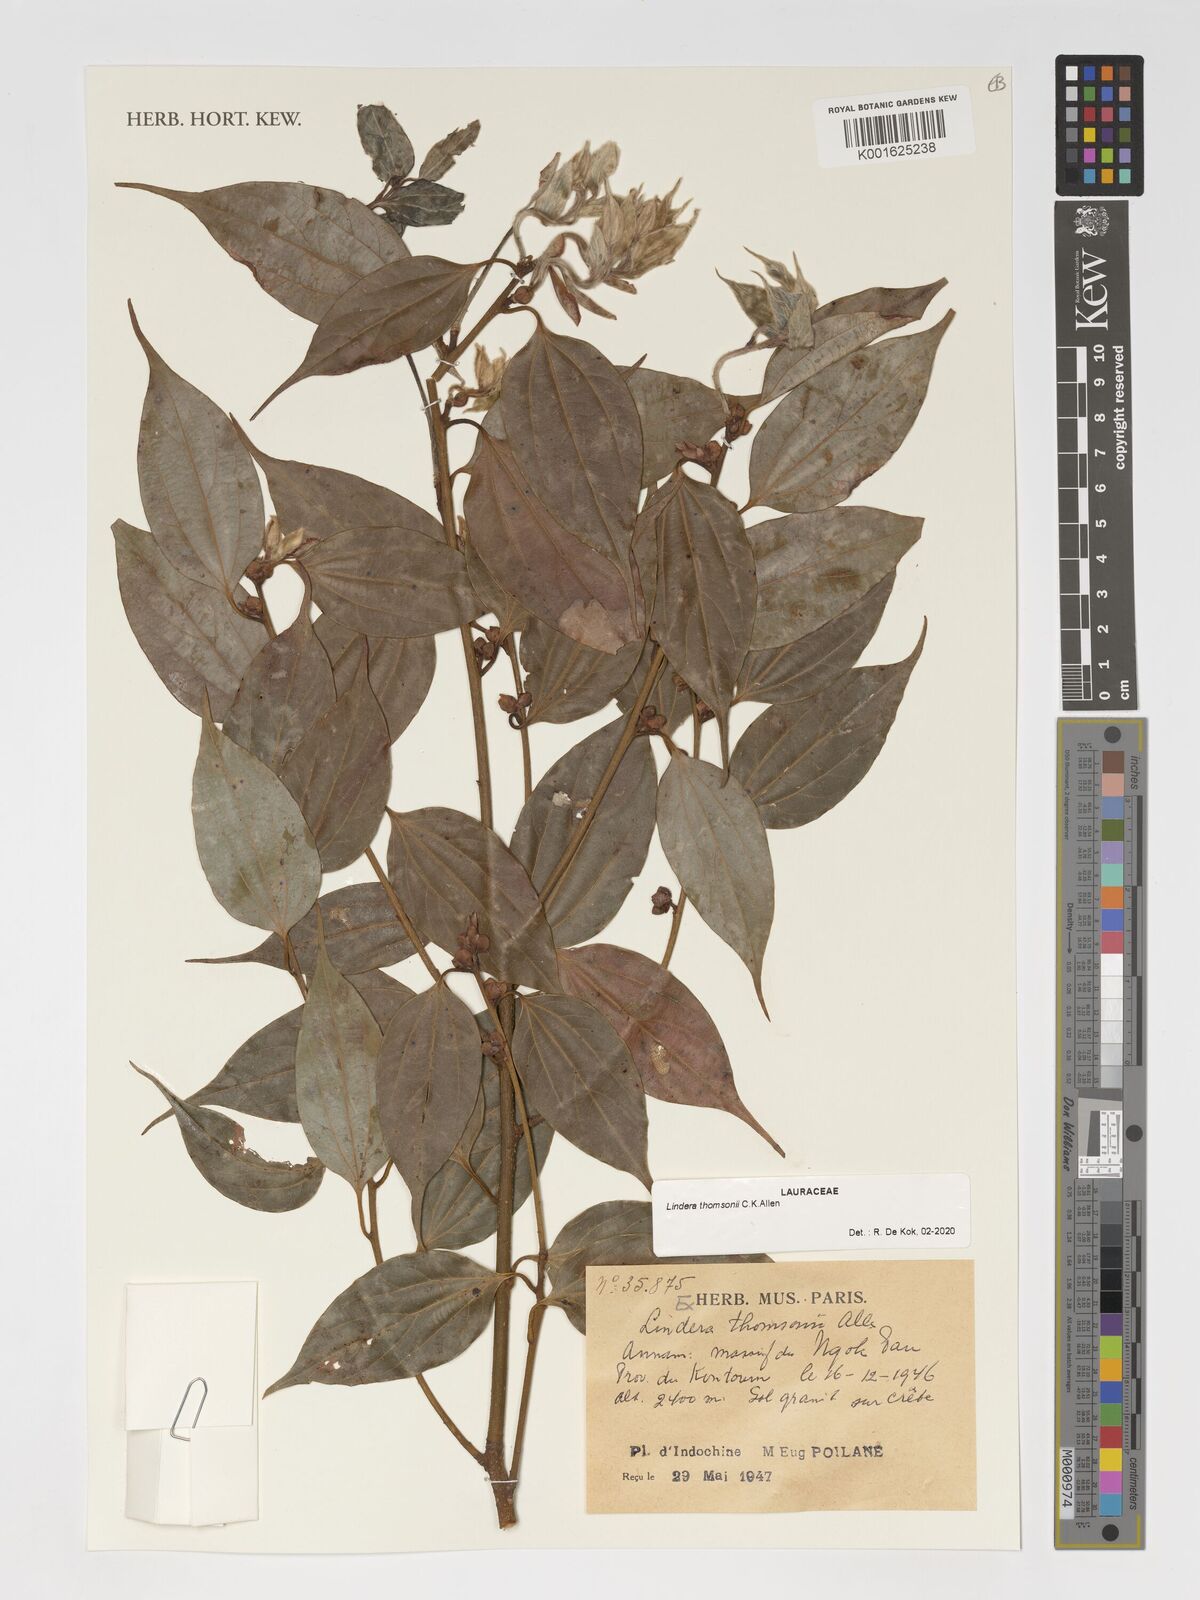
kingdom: Plantae
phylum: Tracheophyta
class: Magnoliopsida
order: Laurales
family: Lauraceae
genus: Lindera
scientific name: Lindera thomsonii
